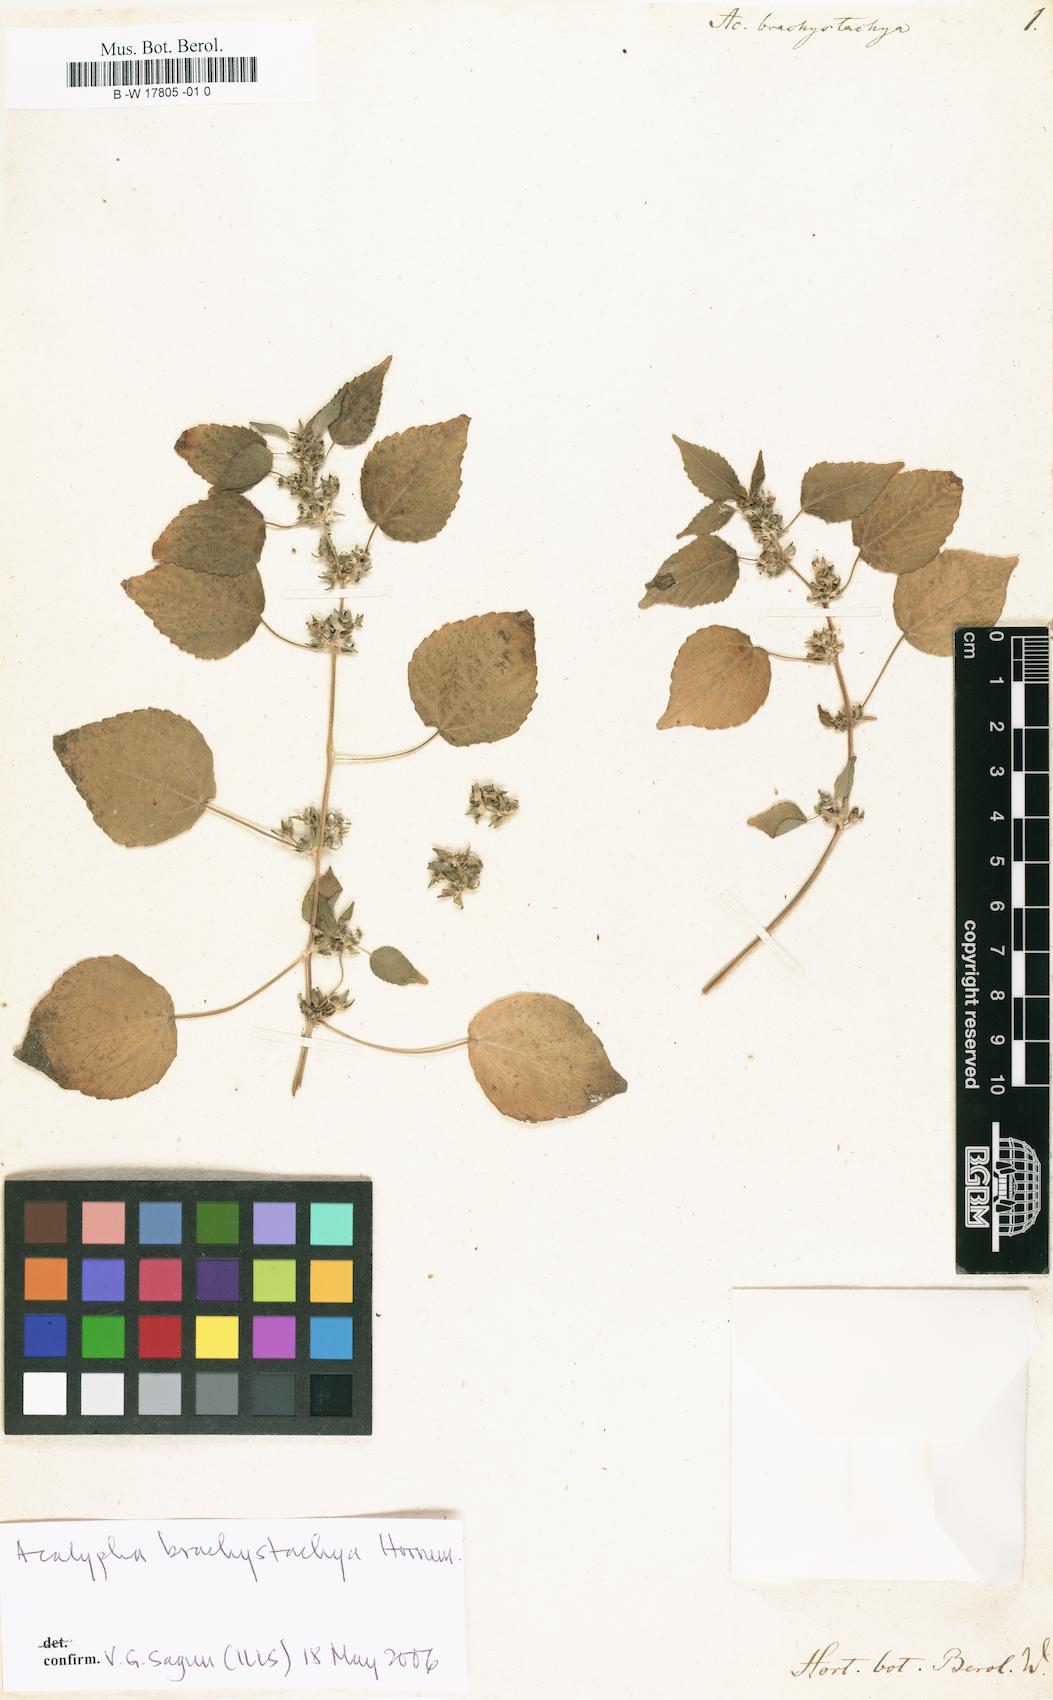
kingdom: Plantae
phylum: Tracheophyta
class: Magnoliopsida
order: Malpighiales
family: Euphorbiaceae
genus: Acalypha
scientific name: Acalypha brachystachya
